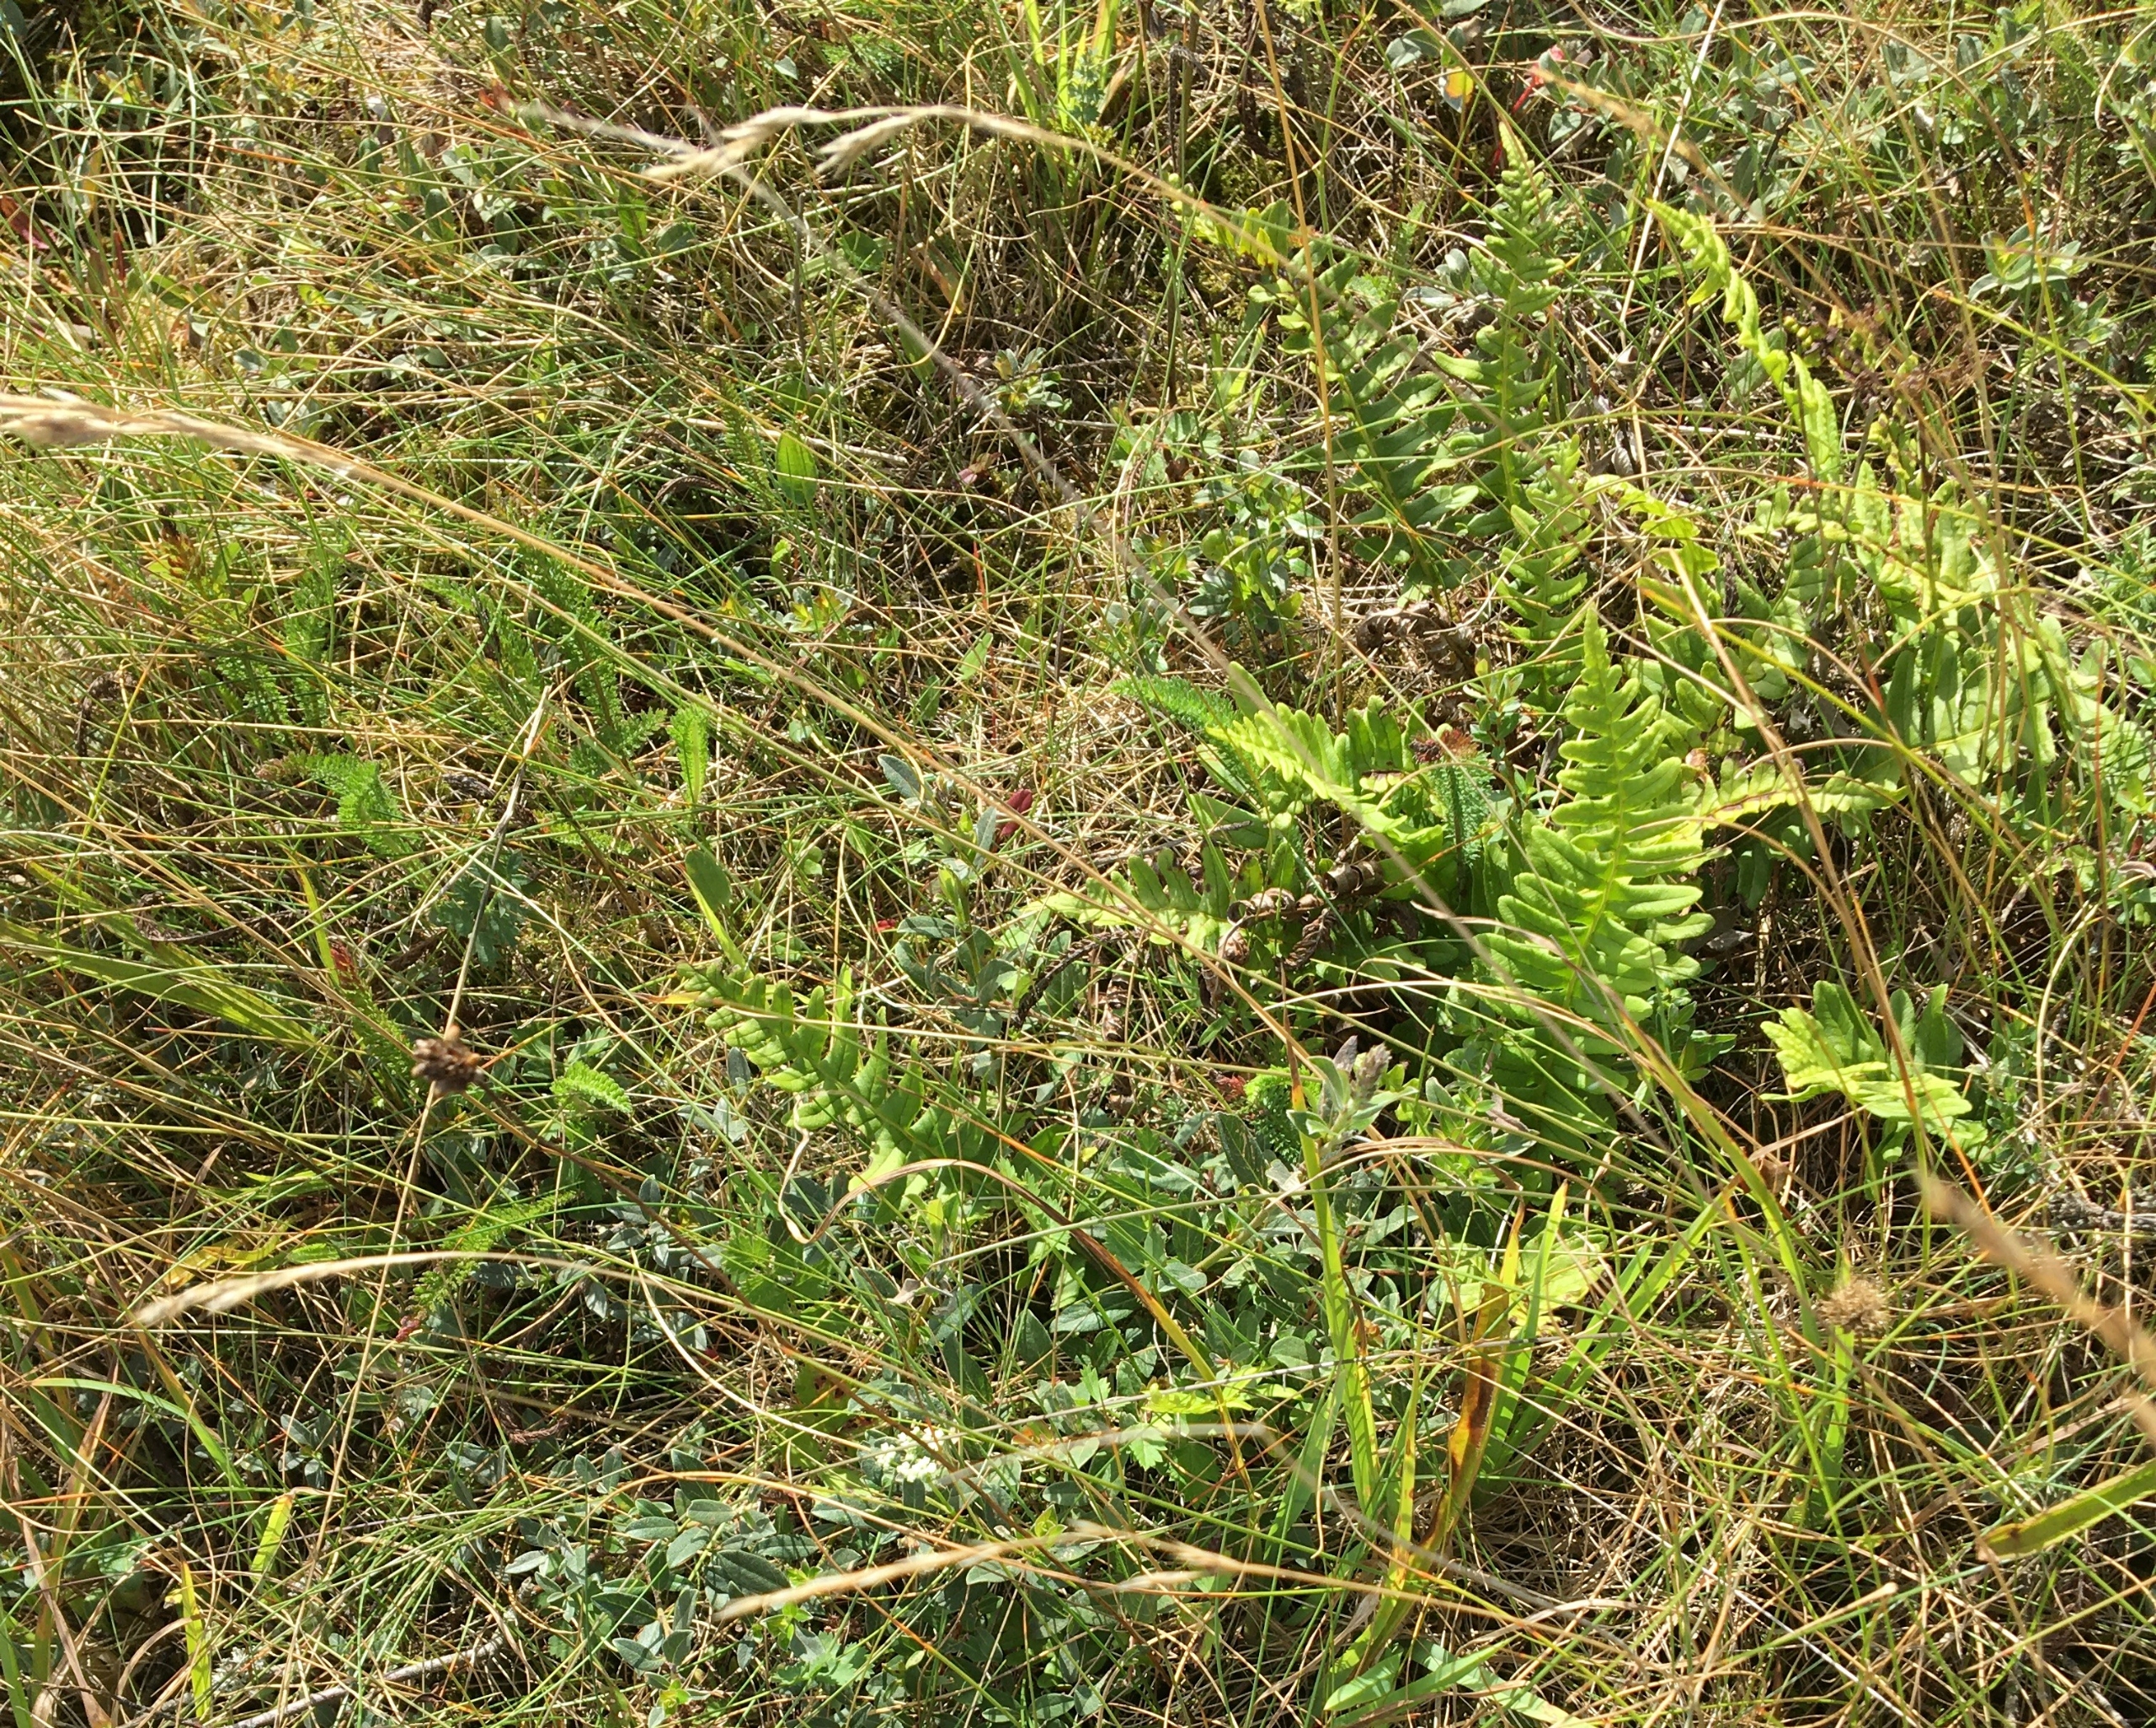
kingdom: Plantae
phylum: Tracheophyta
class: Polypodiopsida
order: Polypodiales
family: Polypodiaceae
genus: Polypodium
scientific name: Polypodium vulgare
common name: Almindelig engelsød
